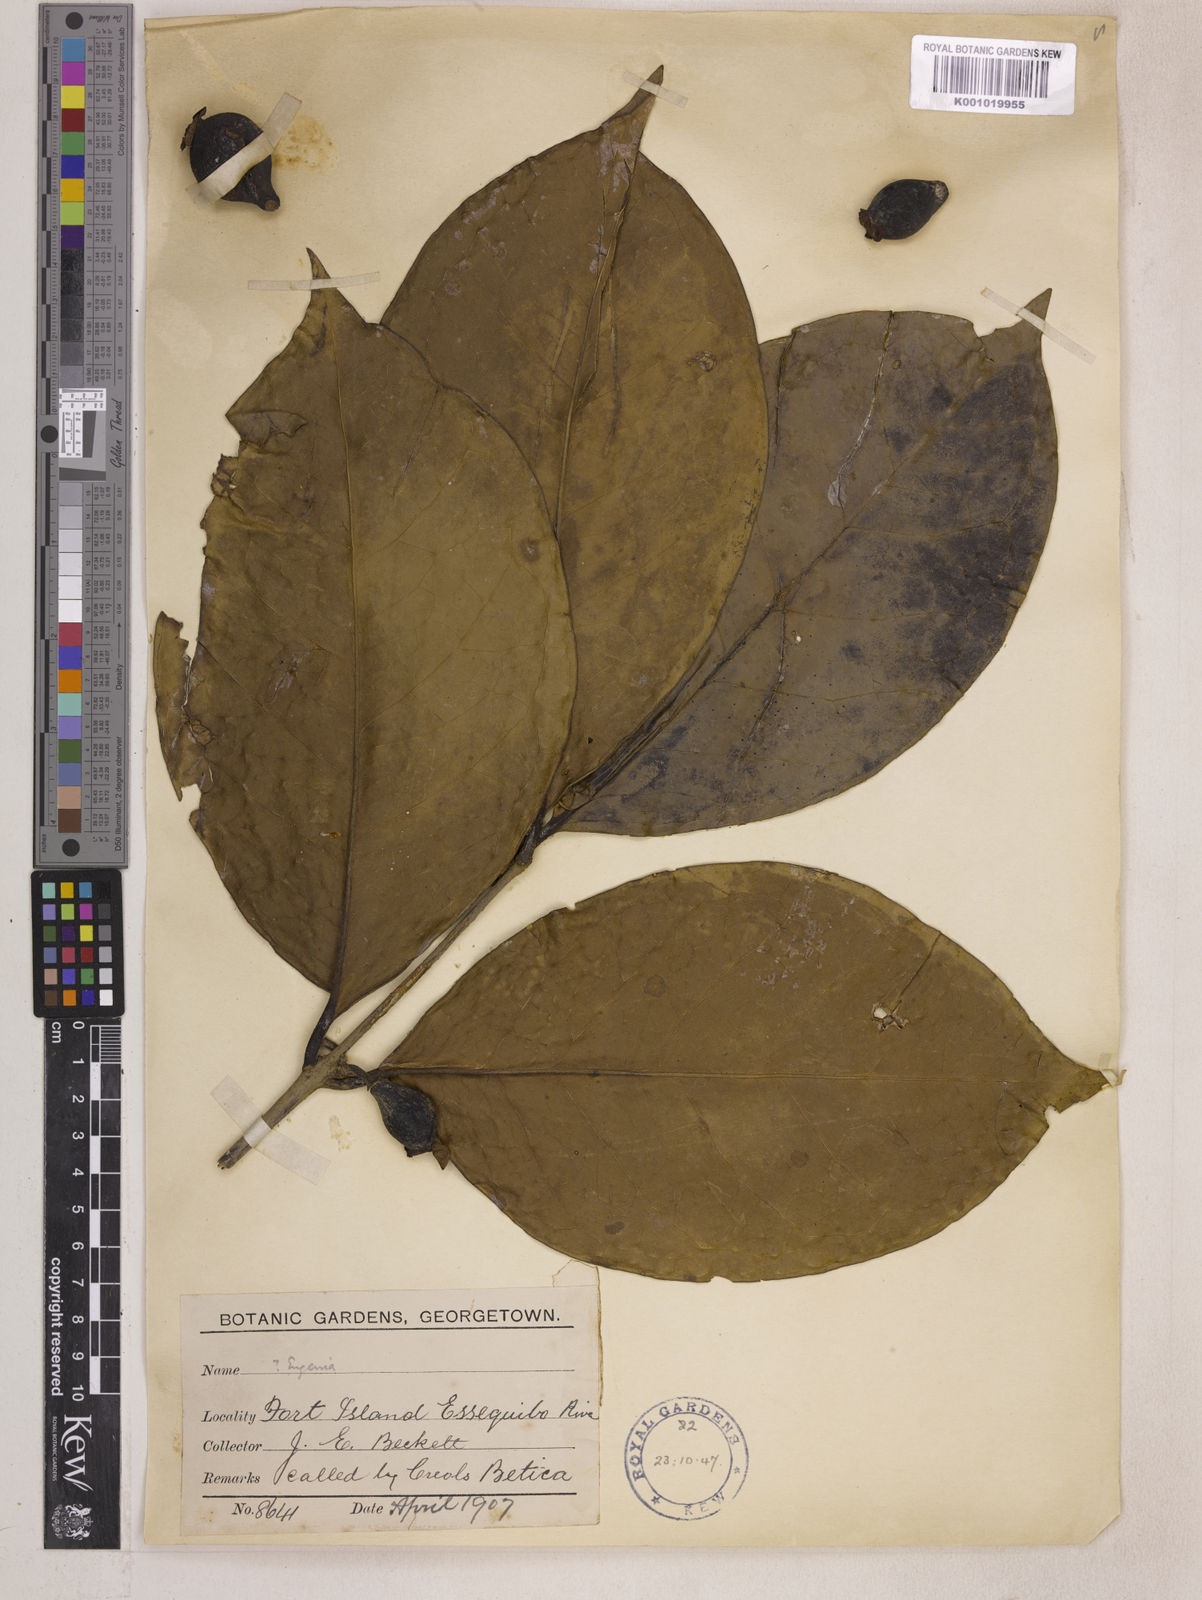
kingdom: Plantae
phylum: Tracheophyta
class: Magnoliopsida
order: Myrtales
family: Myrtaceae
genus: Eugenia
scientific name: Eugenia latifolia
